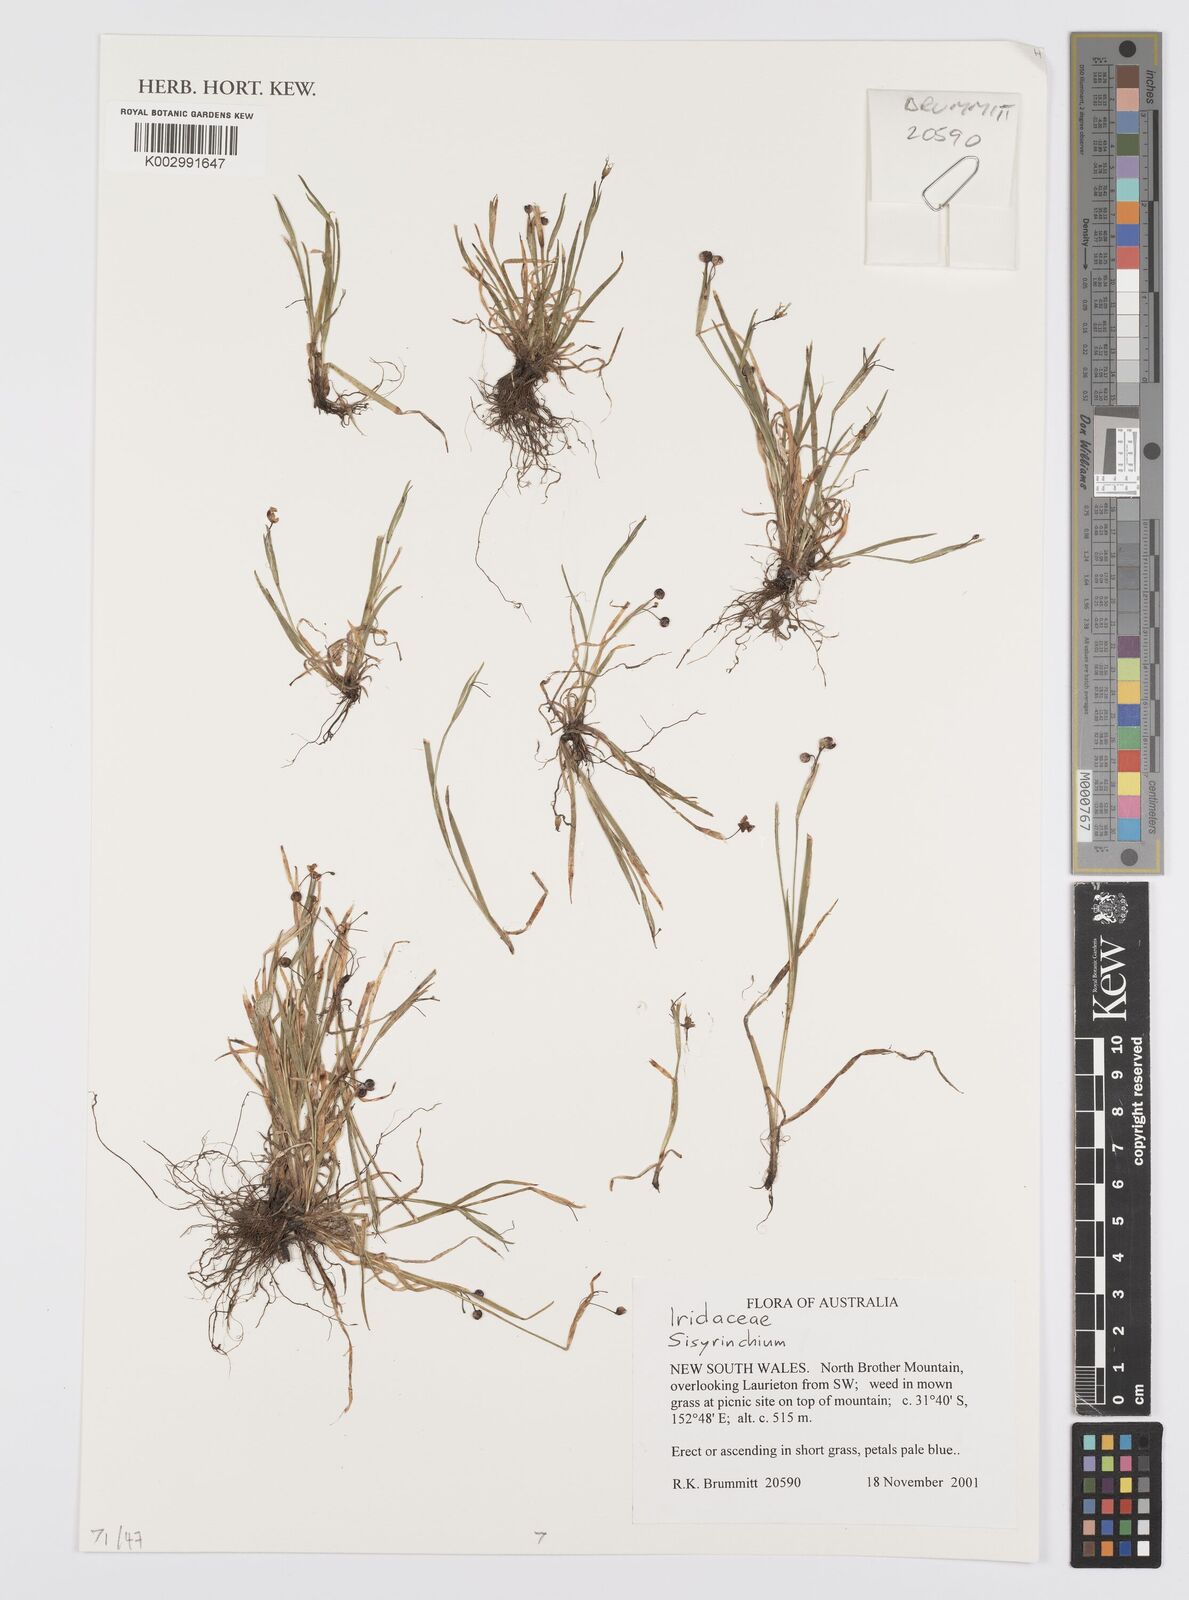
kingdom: Plantae
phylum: Tracheophyta
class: Liliopsida
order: Asparagales
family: Iridaceae
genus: Sisyrinchium
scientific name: Sisyrinchium
